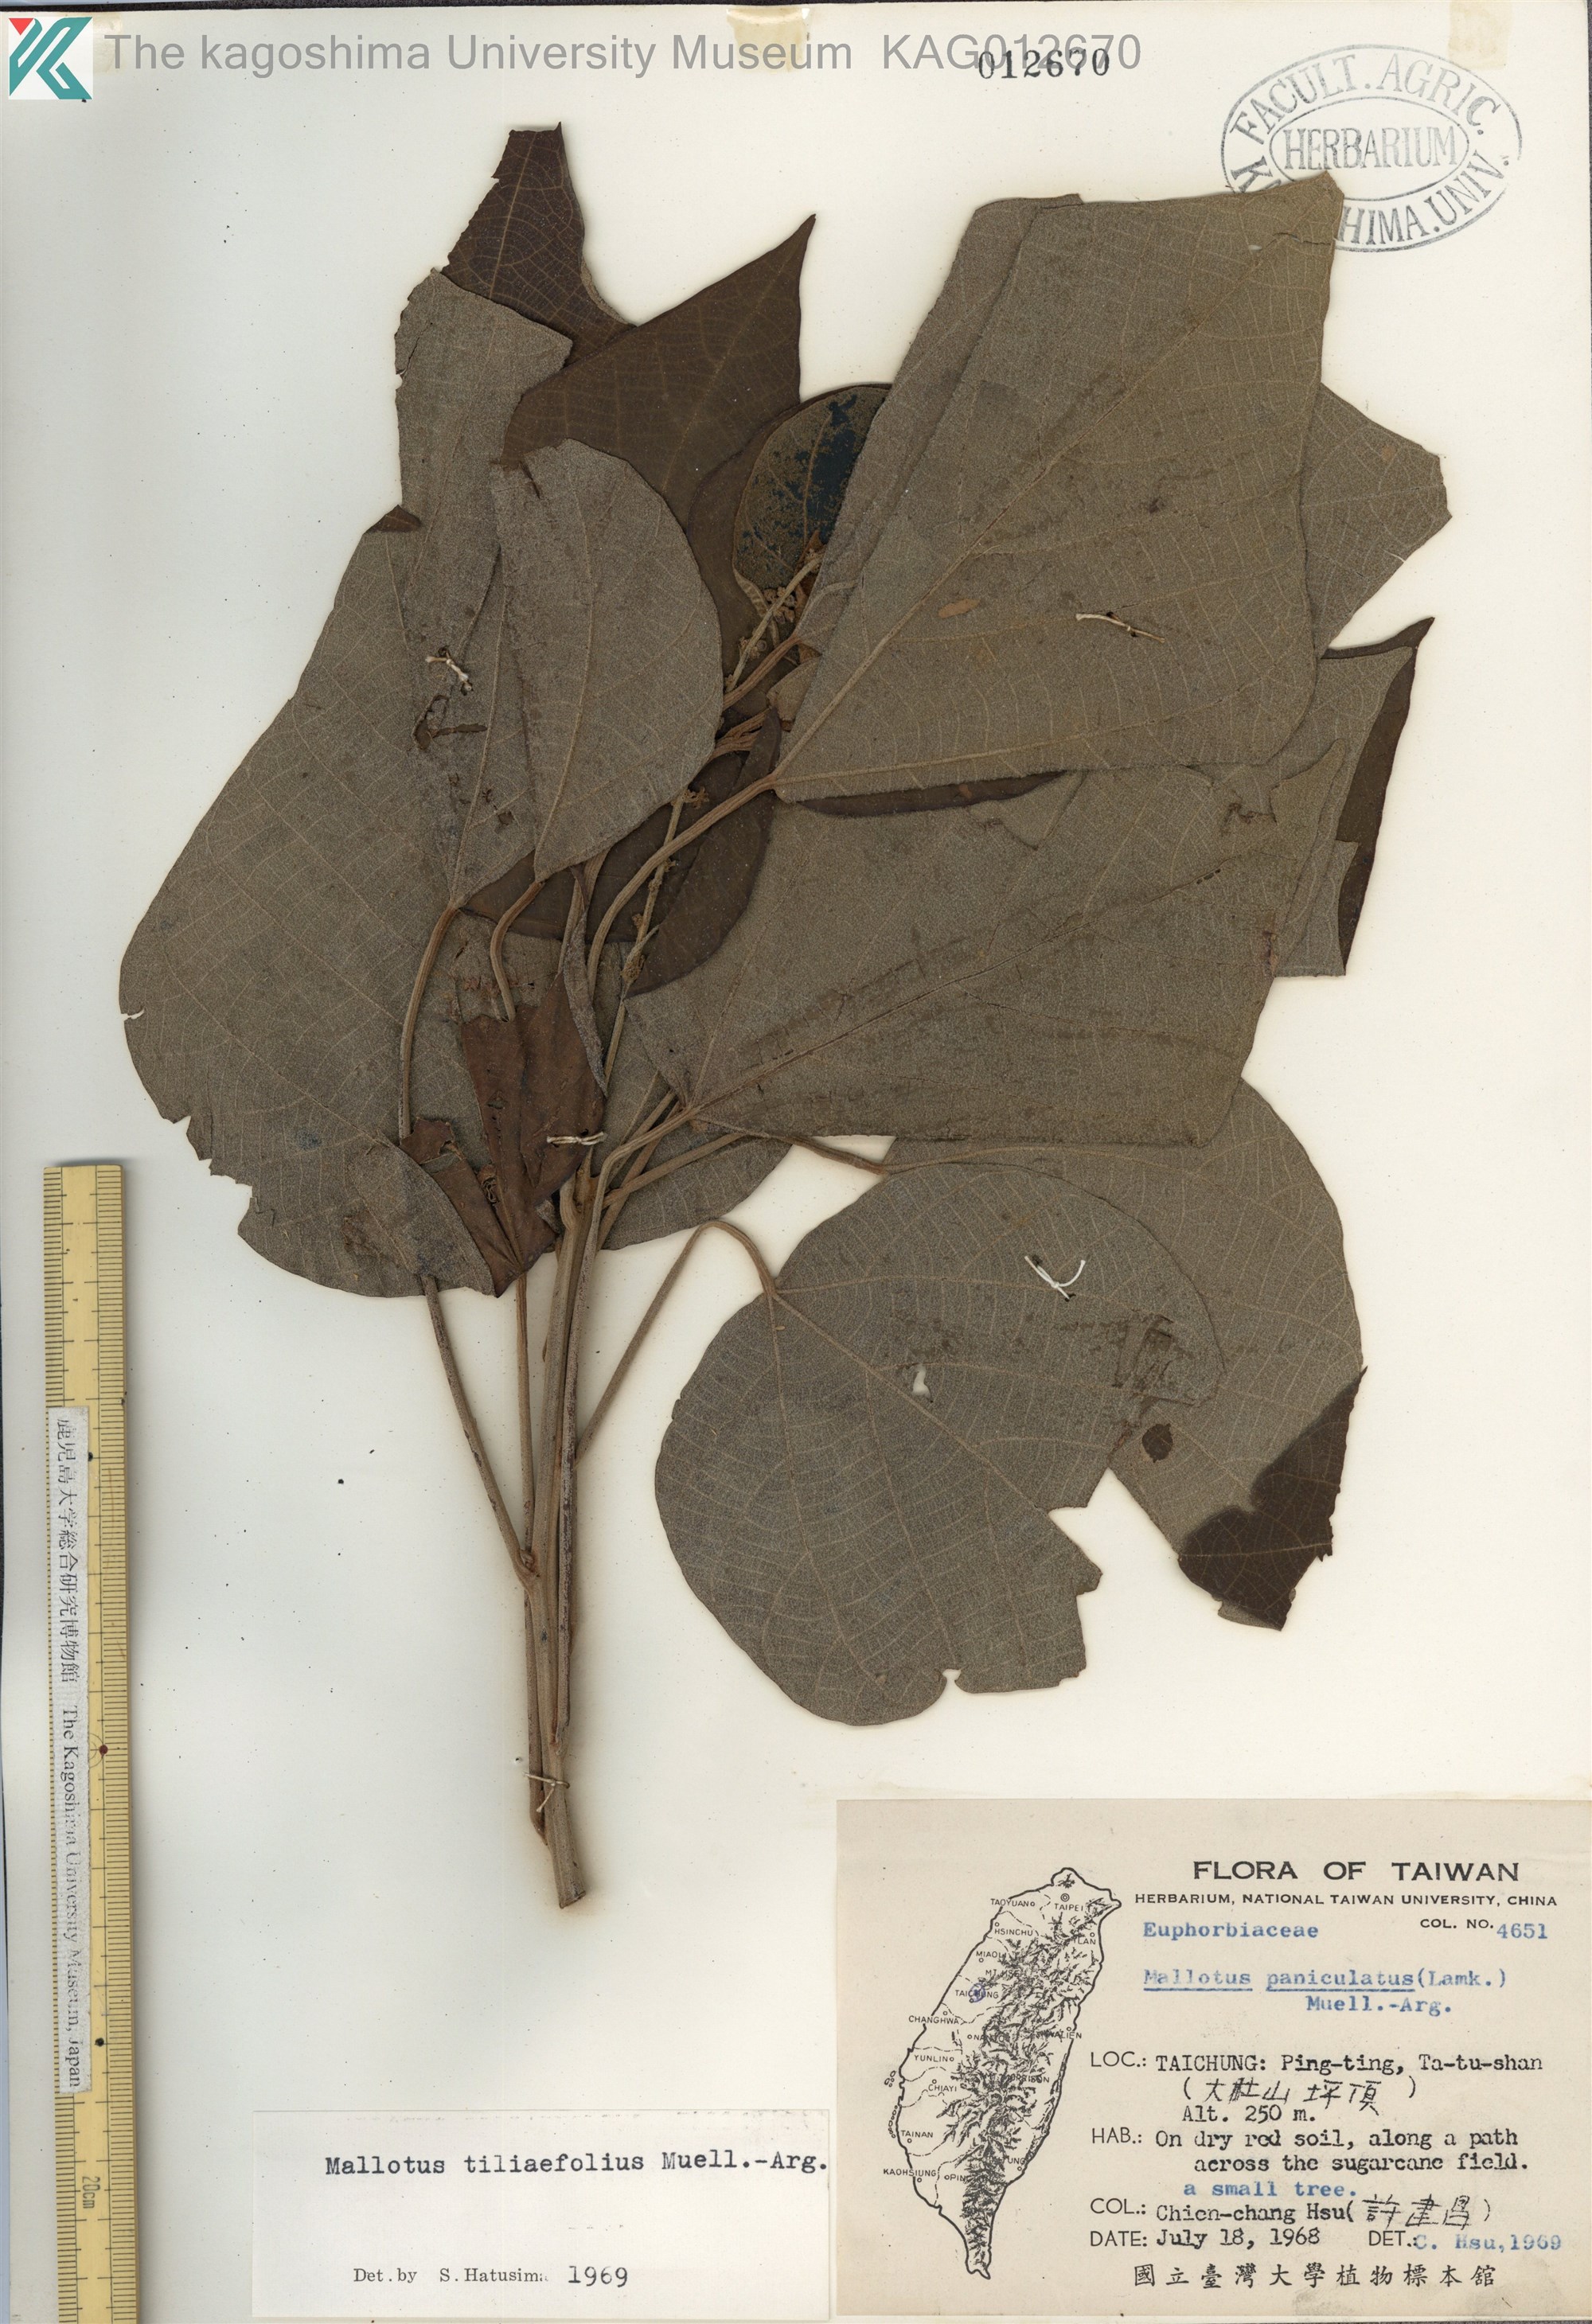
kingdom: Plantae
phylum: Tracheophyta
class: Magnoliopsida
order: Malpighiales
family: Euphorbiaceae
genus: Mallotus
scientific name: Mallotus paniculatus
